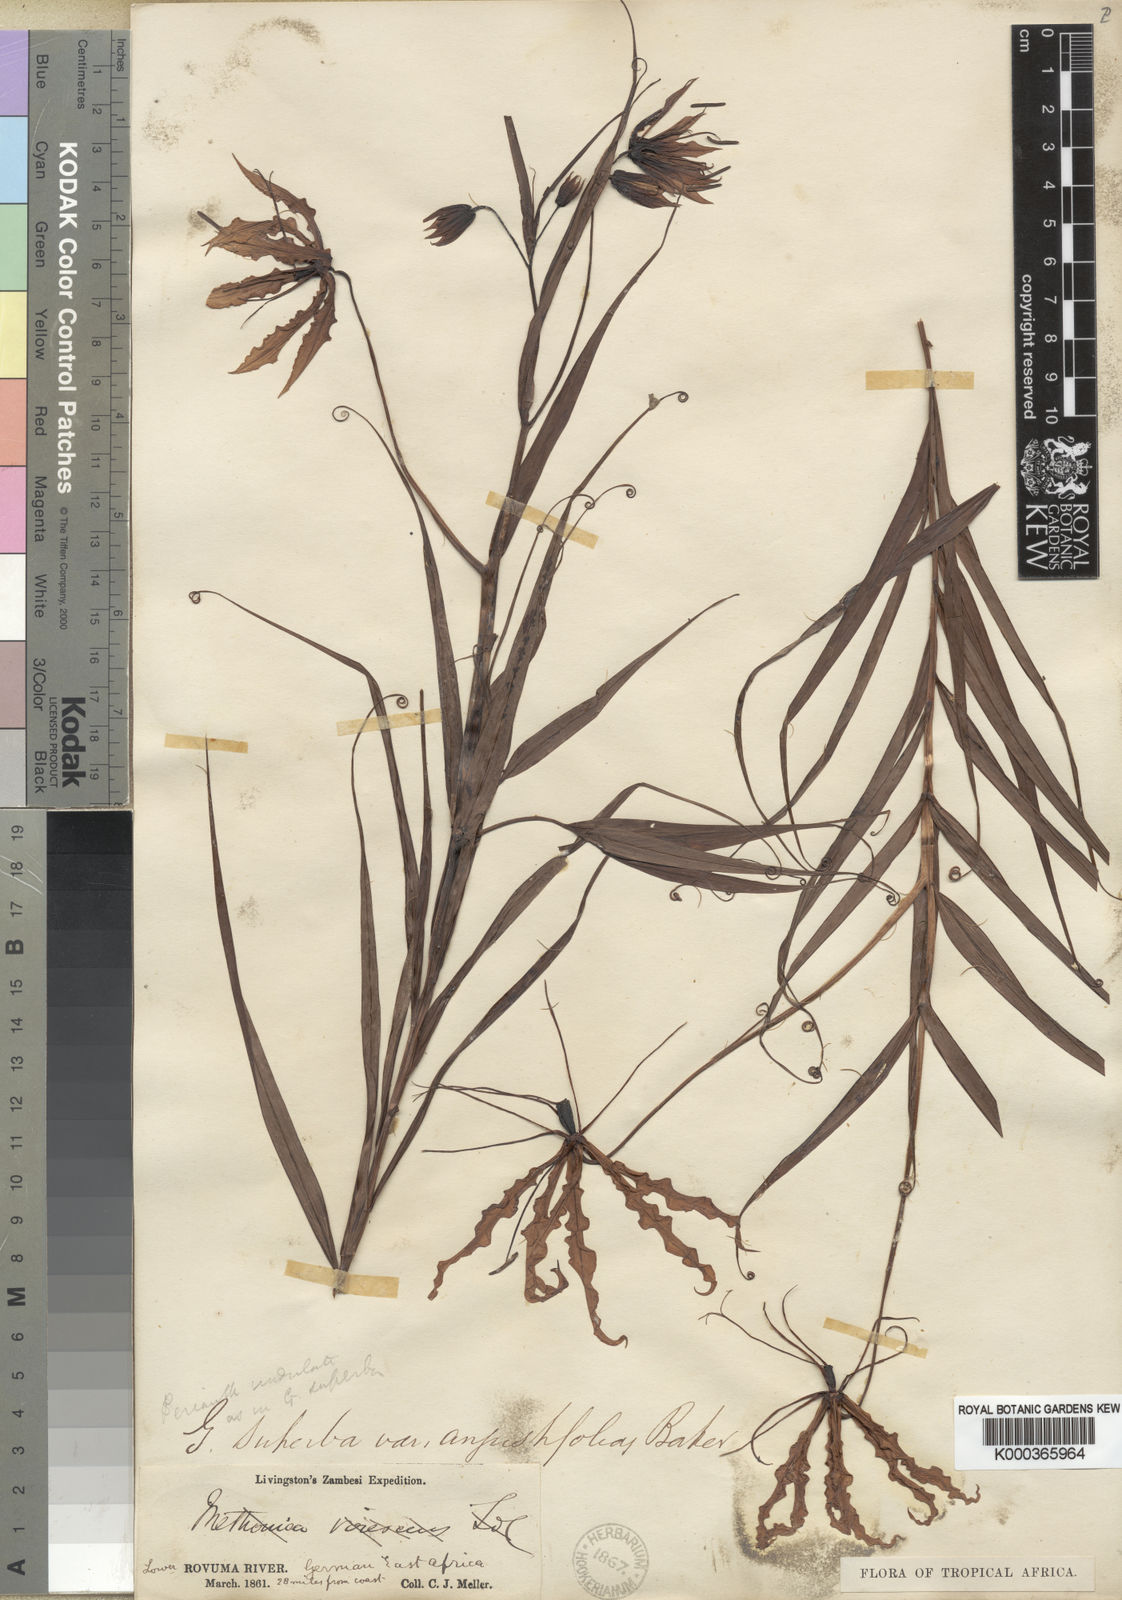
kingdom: Plantae
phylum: Tracheophyta
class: Liliopsida
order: Liliales
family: Colchicaceae
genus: Gloriosa
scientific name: Gloriosa superba
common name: Flame lily
